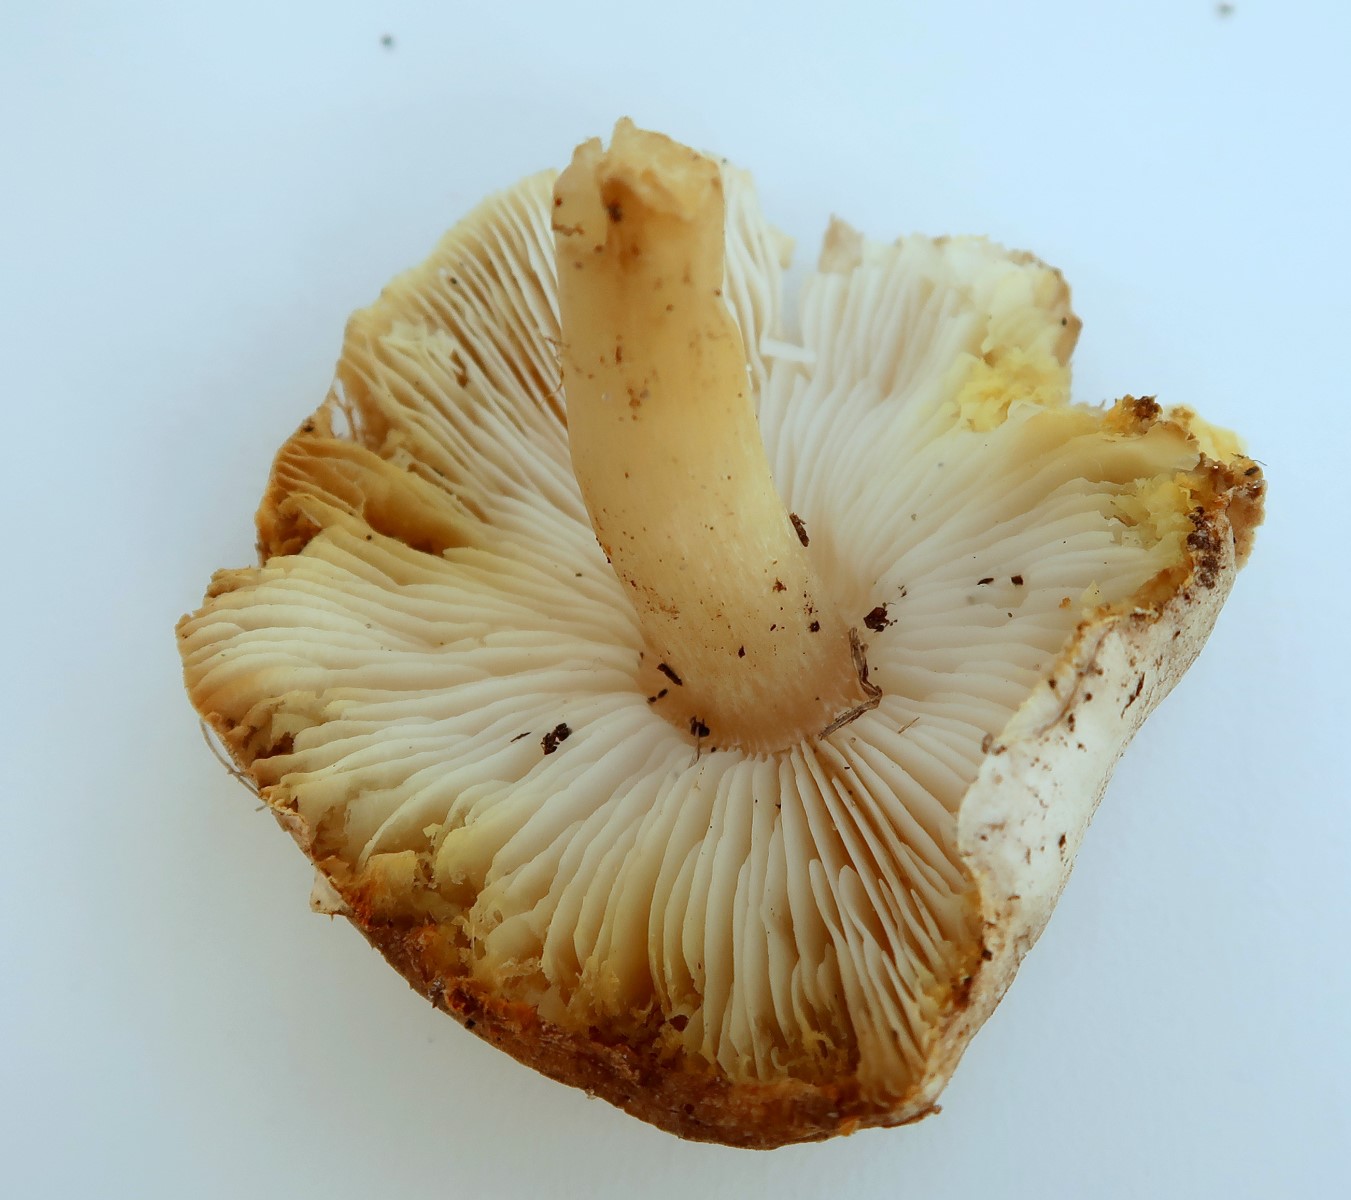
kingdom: Fungi
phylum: Basidiomycota
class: Agaricomycetes
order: Agaricales
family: Tricholomataceae
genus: Tricholoma
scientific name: Tricholoma scalpturatum
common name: gulplettet ridderhat
